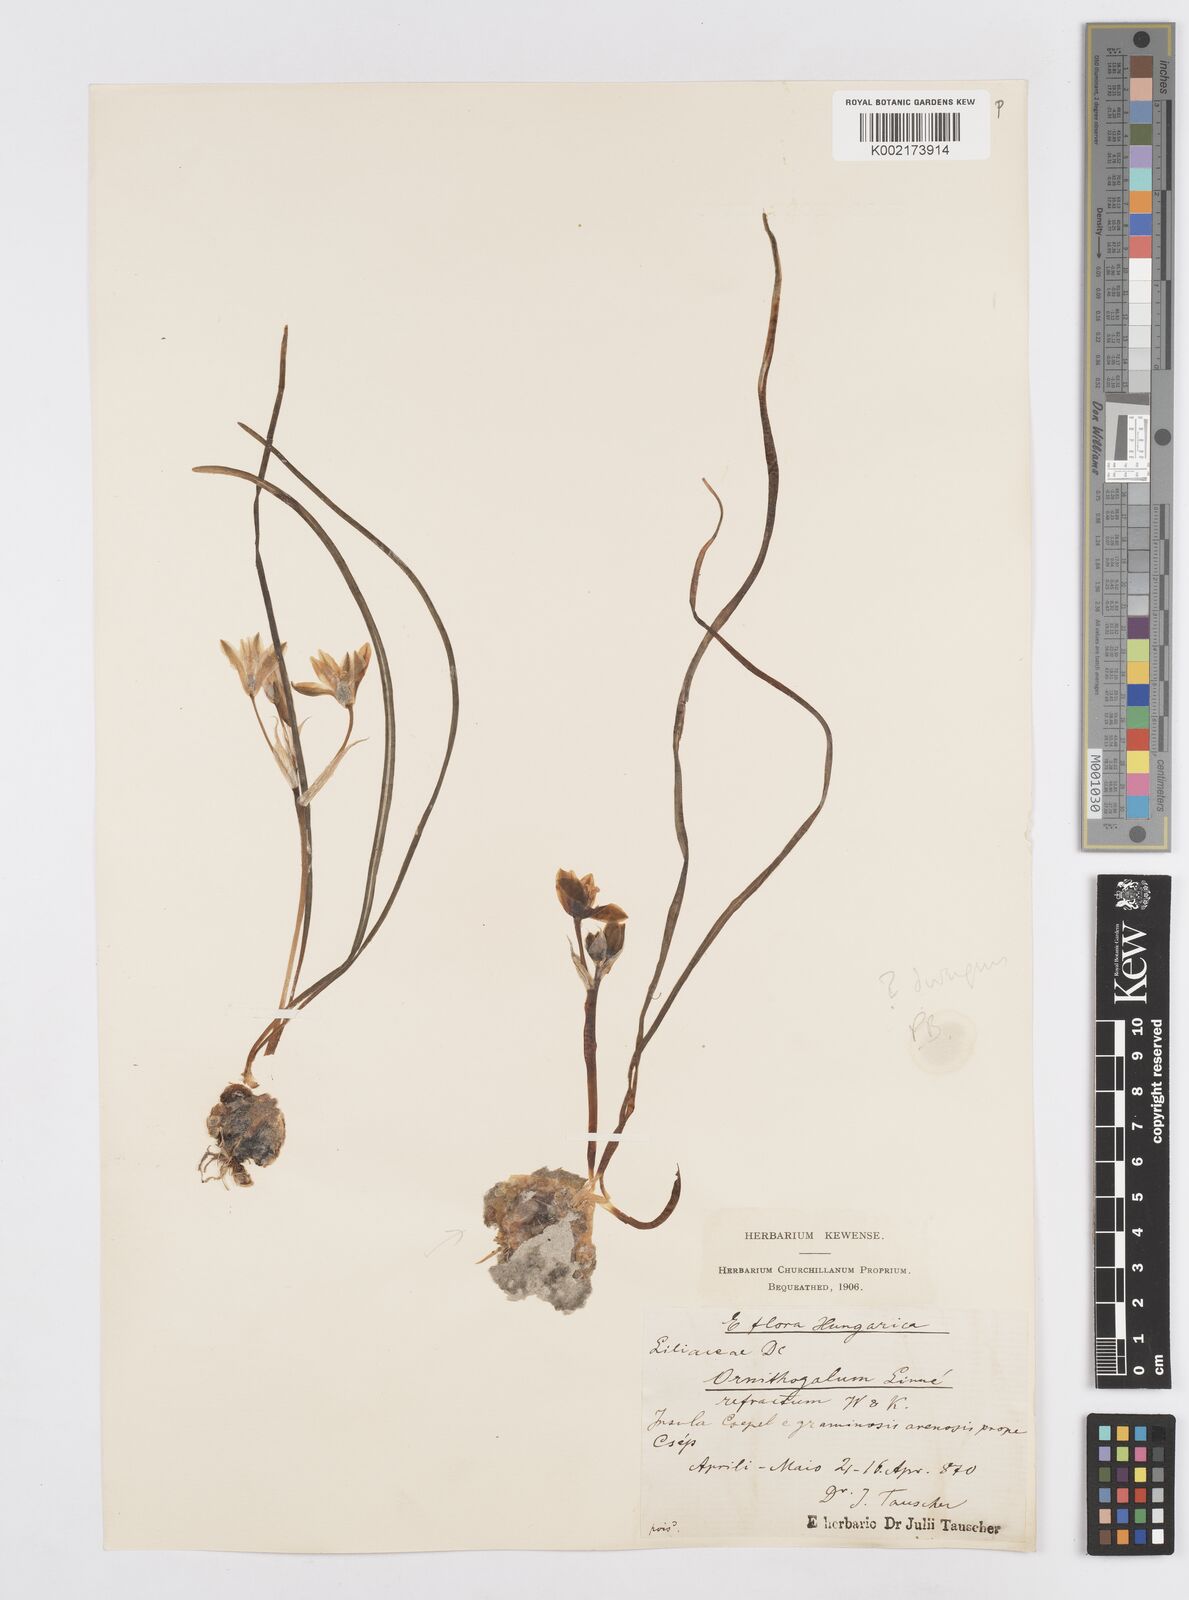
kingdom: Plantae
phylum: Tracheophyta
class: Liliopsida
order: Asparagales
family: Asparagaceae
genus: Ornithogalum
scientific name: Ornithogalum refractum
